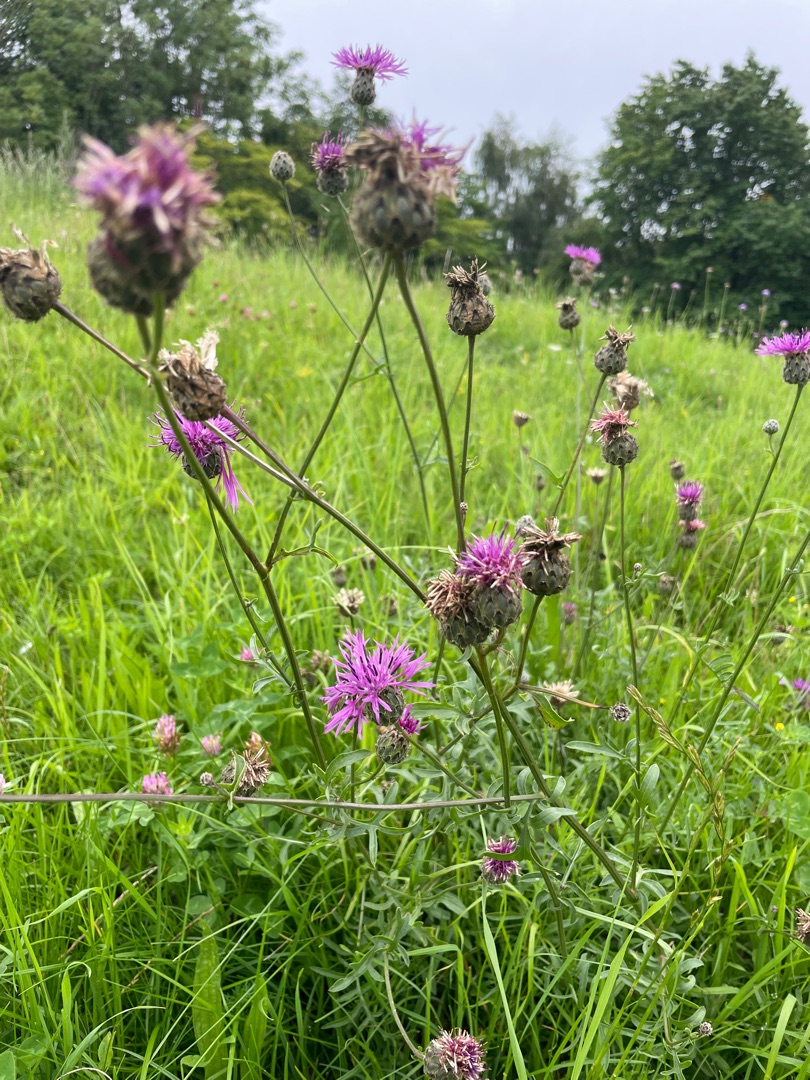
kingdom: Plantae
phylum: Tracheophyta
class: Magnoliopsida
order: Asterales
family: Asteraceae
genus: Centaurea
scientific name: Centaurea scabiosa
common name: Stor knopurt
